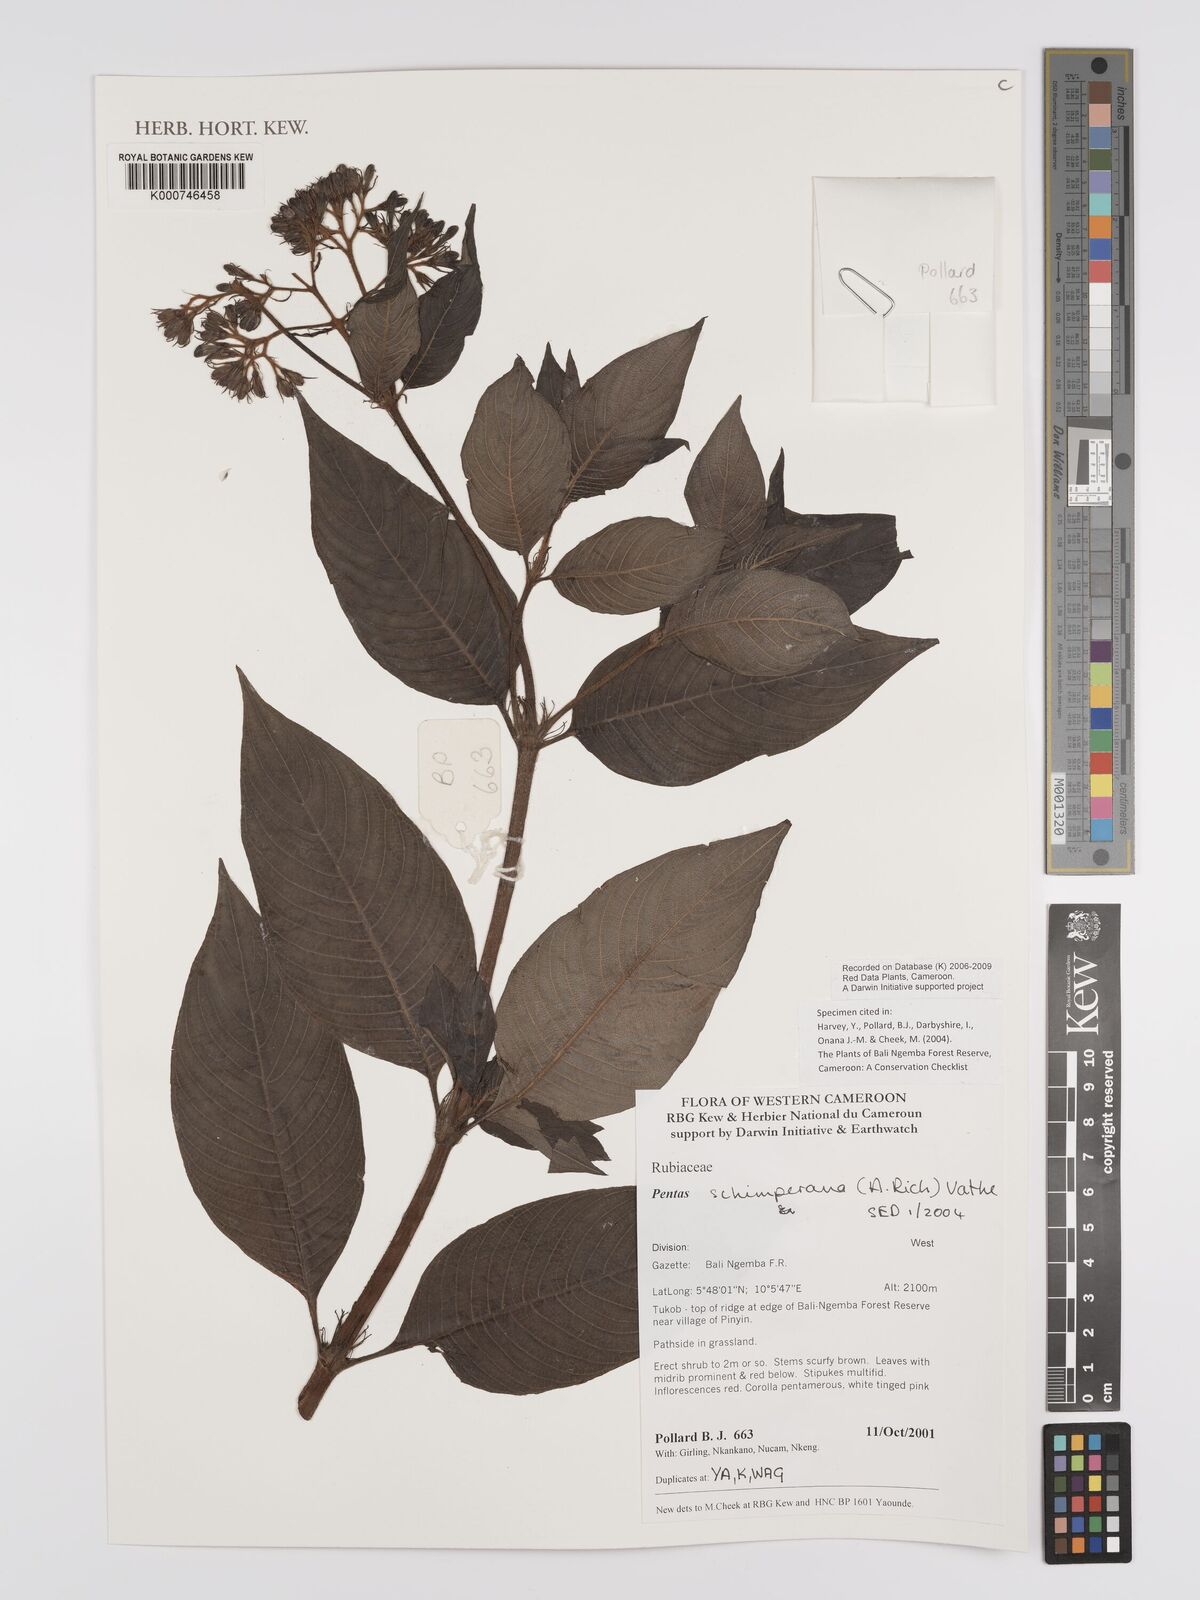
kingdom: Plantae
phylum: Tracheophyta
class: Magnoliopsida
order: Gentianales
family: Rubiaceae
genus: Phyllopentas
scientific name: Phyllopentas schimperi
